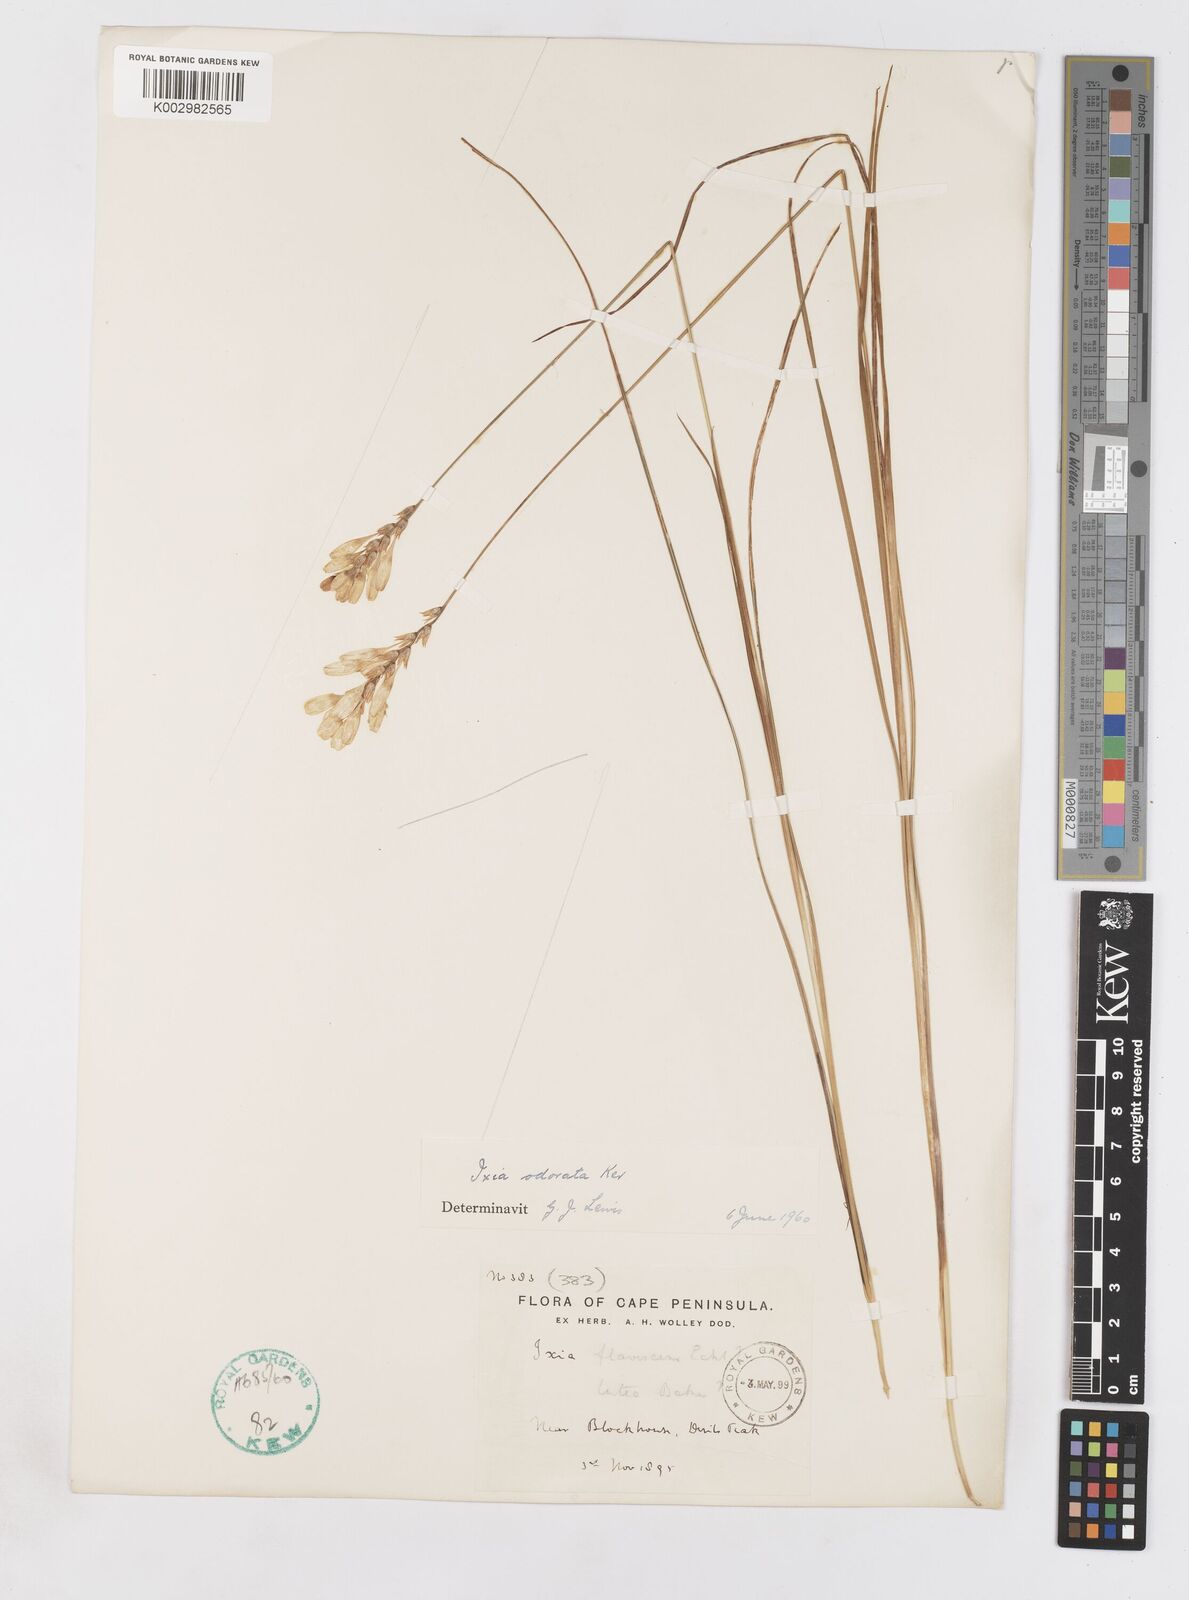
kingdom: Plantae
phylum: Tracheophyta
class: Liliopsida
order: Asparagales
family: Iridaceae
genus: Ixia
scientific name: Ixia odorata
